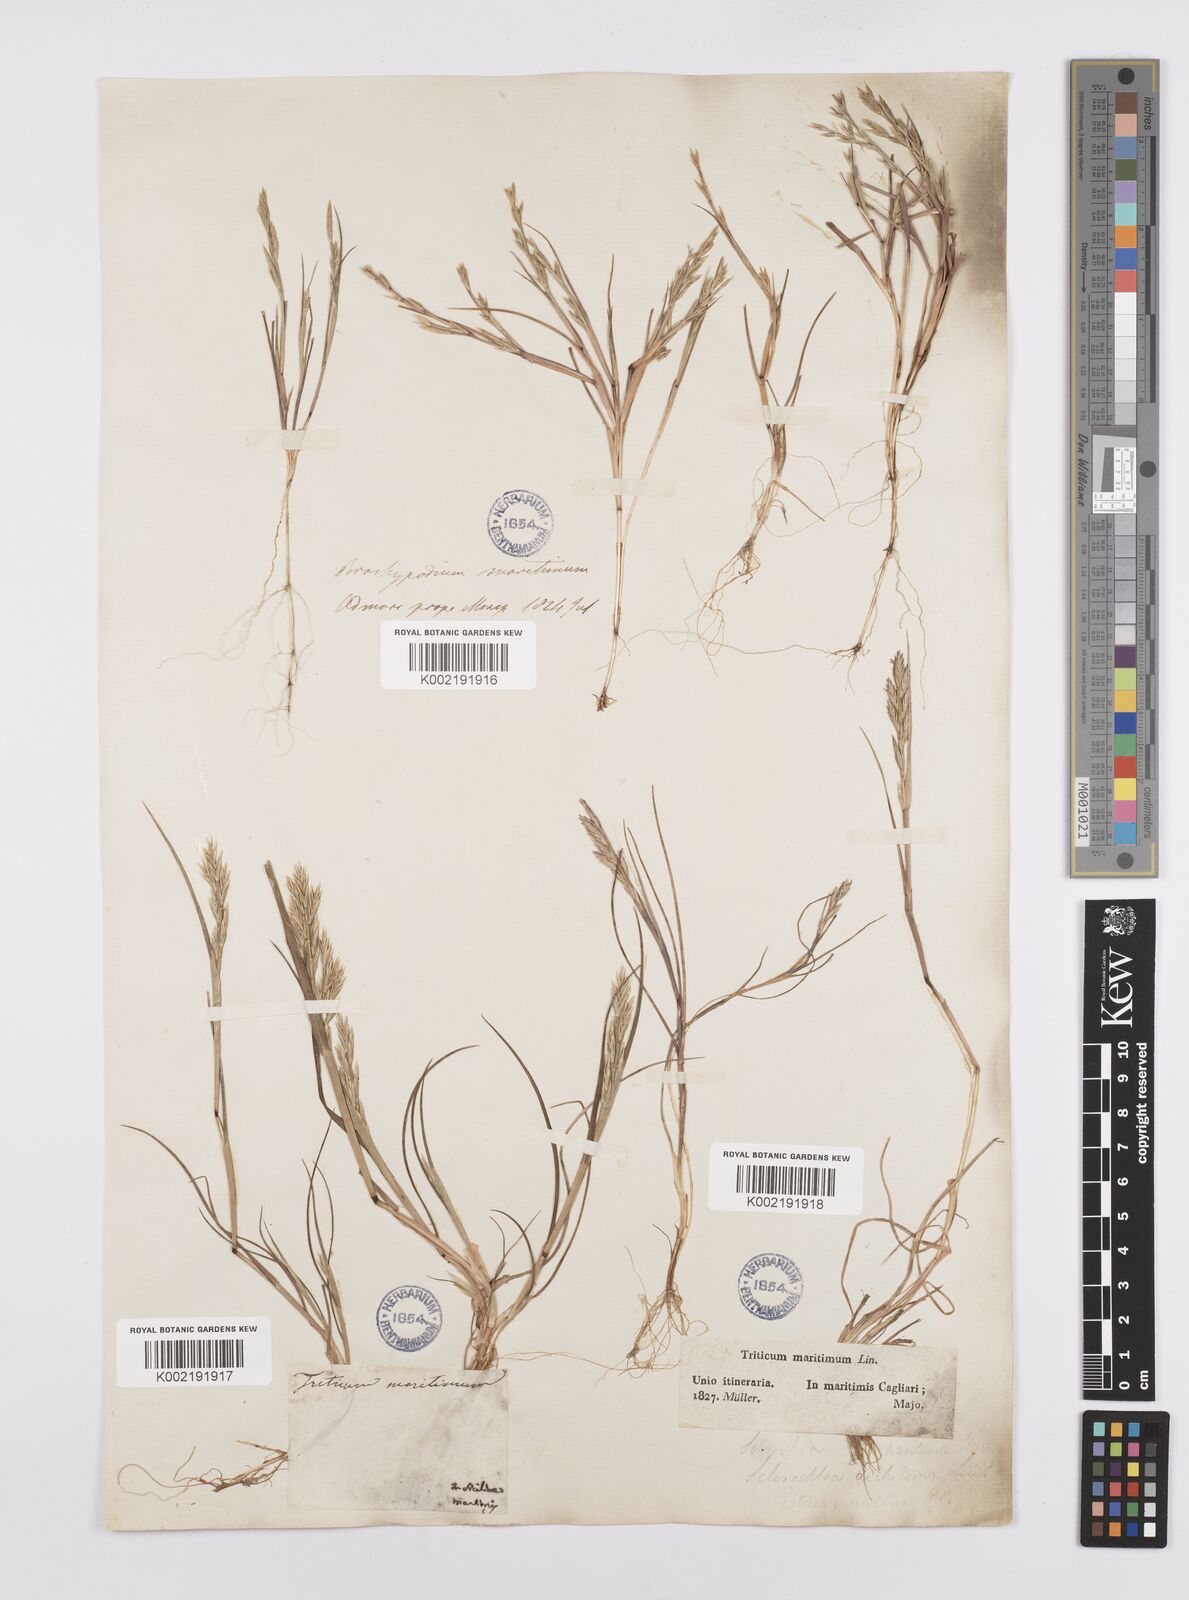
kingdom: Plantae
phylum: Tracheophyta
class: Liliopsida
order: Poales
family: Poaceae
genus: Cutandia
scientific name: Cutandia maritima
